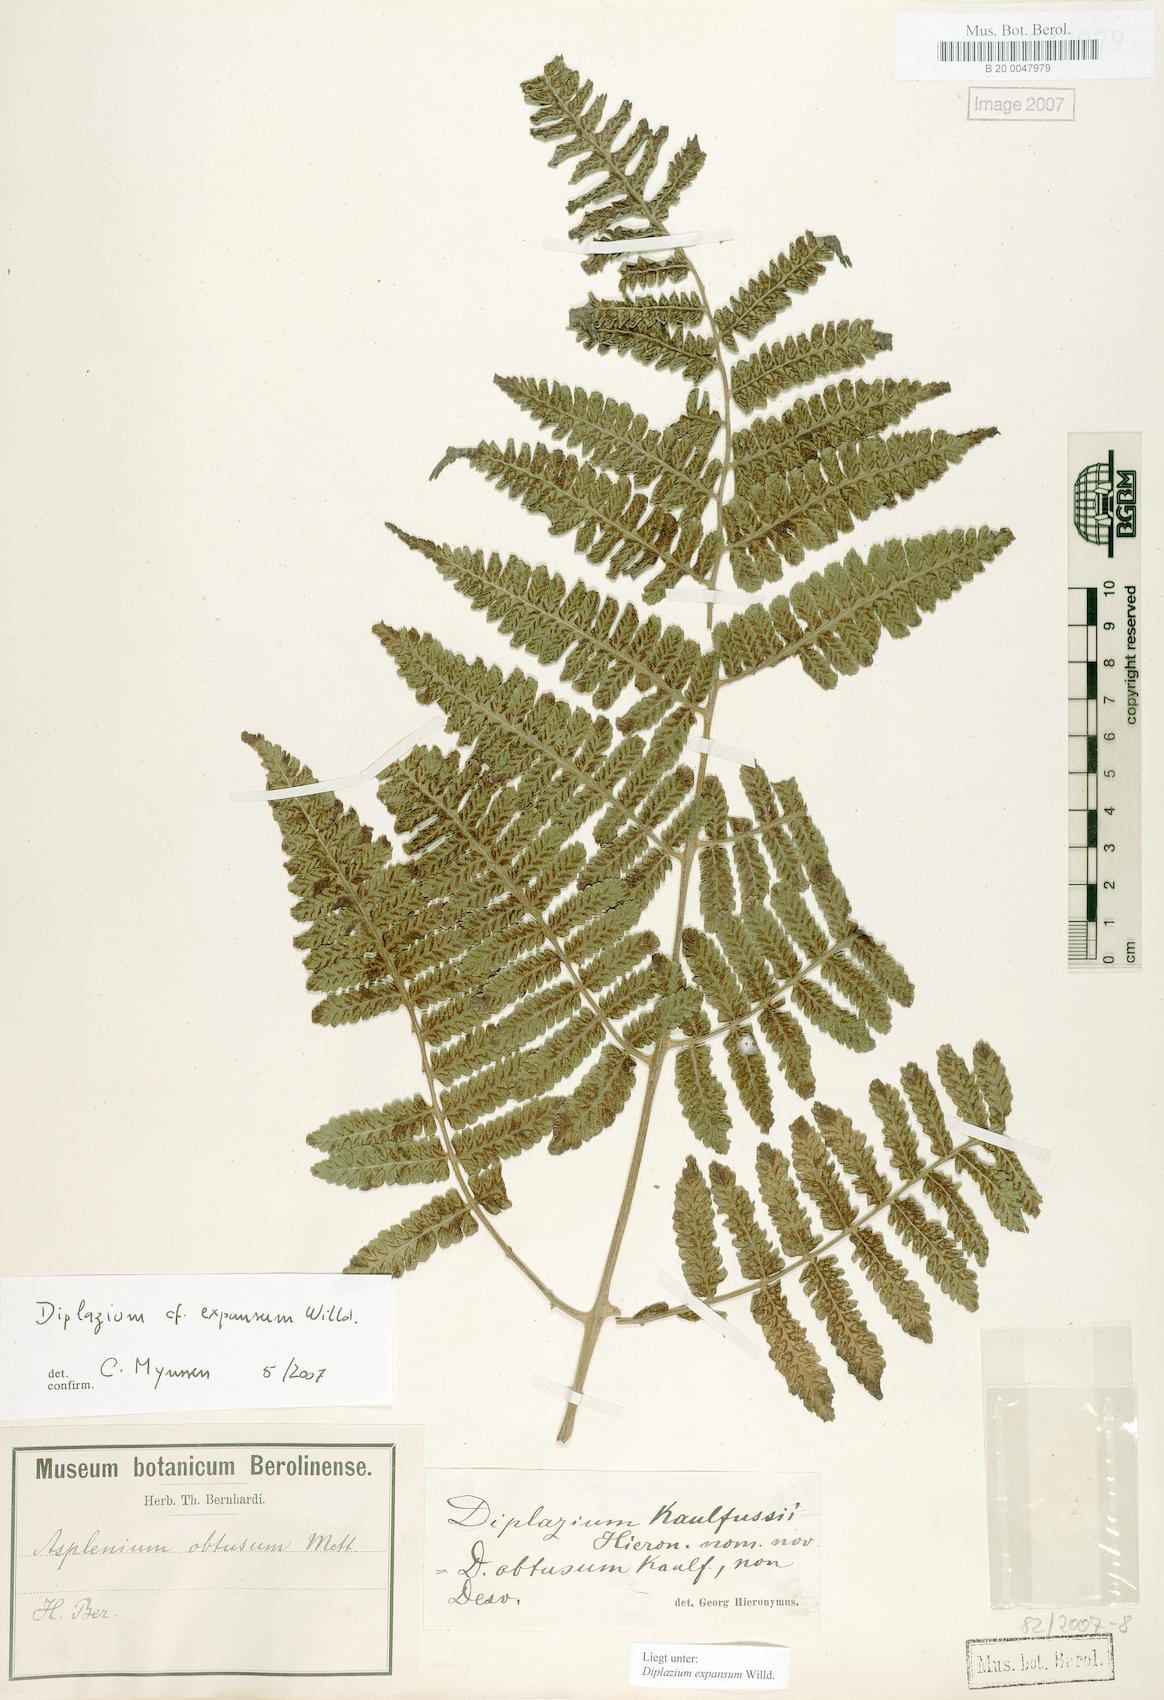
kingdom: Plantae
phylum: Tracheophyta
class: Polypodiopsida
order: Polypodiales
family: Athyriaceae
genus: Diplazium
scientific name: Diplazium expansum
